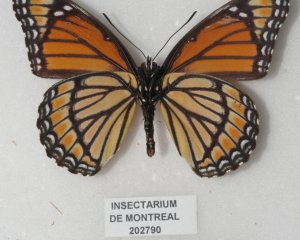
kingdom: Animalia
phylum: Arthropoda
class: Insecta
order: Lepidoptera
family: Nymphalidae
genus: Limenitis
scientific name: Limenitis archippus
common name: Viceroy
